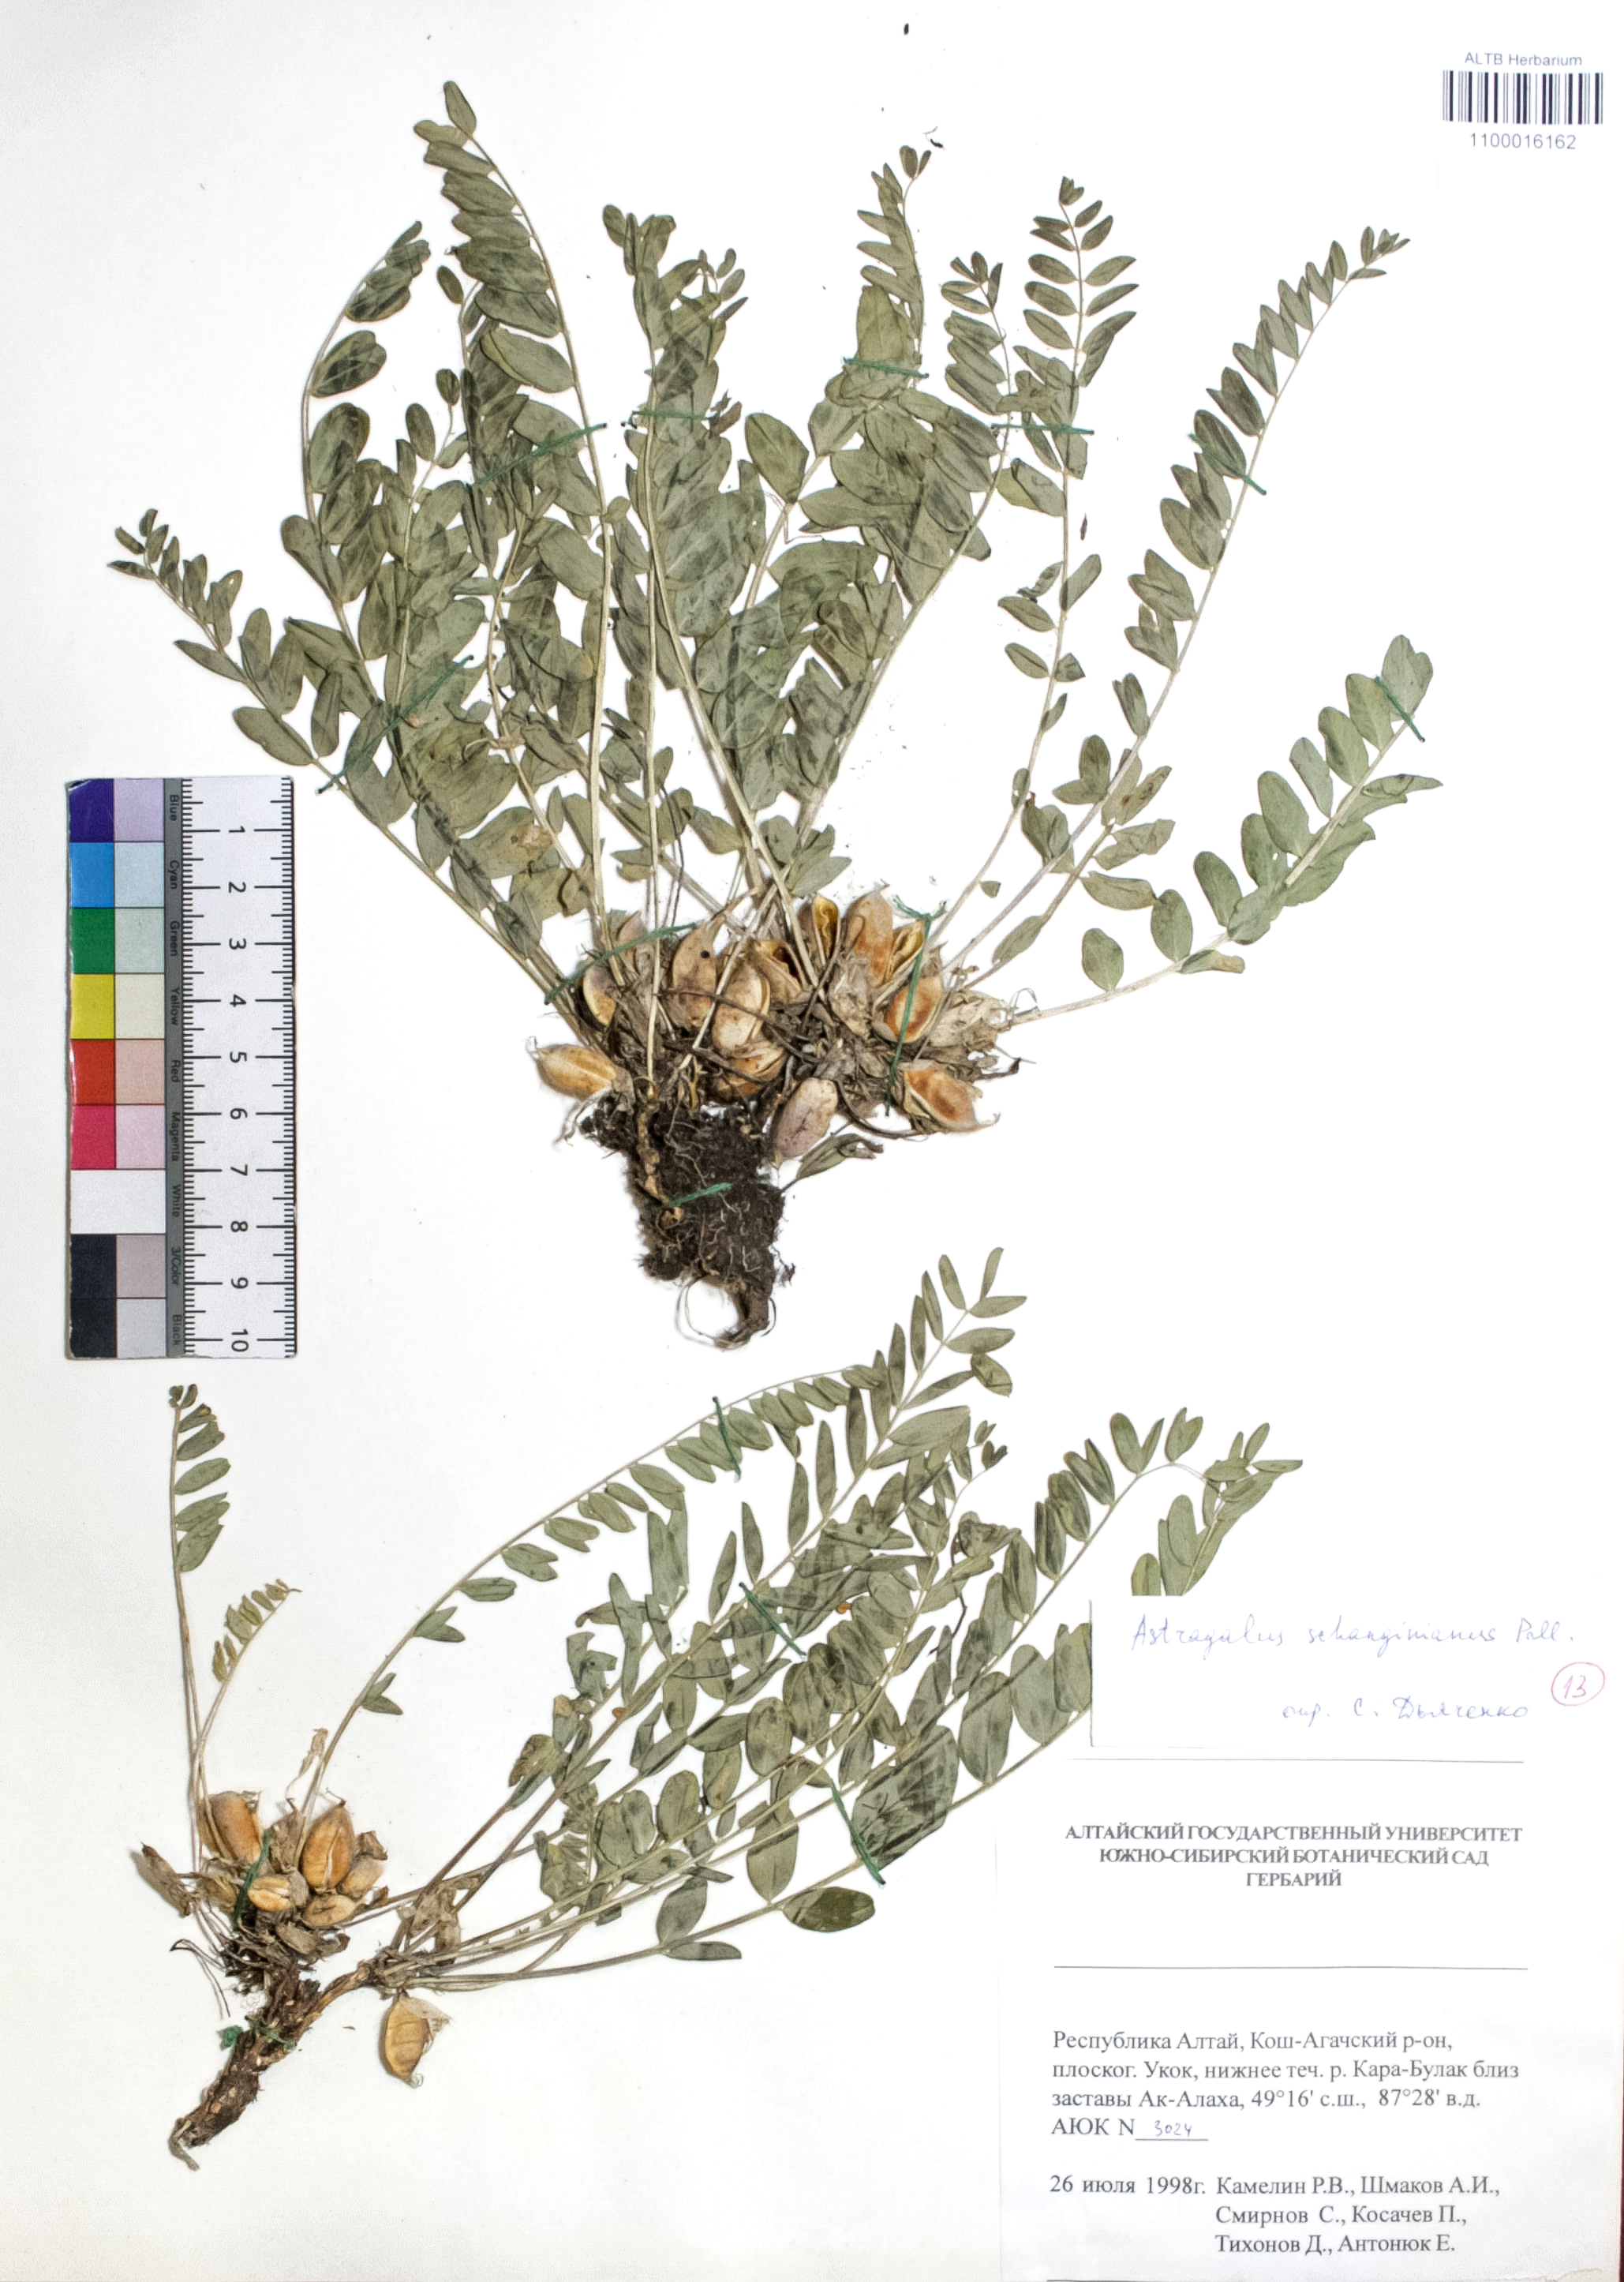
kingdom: Plantae
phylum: Tracheophyta
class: Magnoliopsida
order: Fabales
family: Fabaceae
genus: Astragalus
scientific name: Astragalus schanginianus
